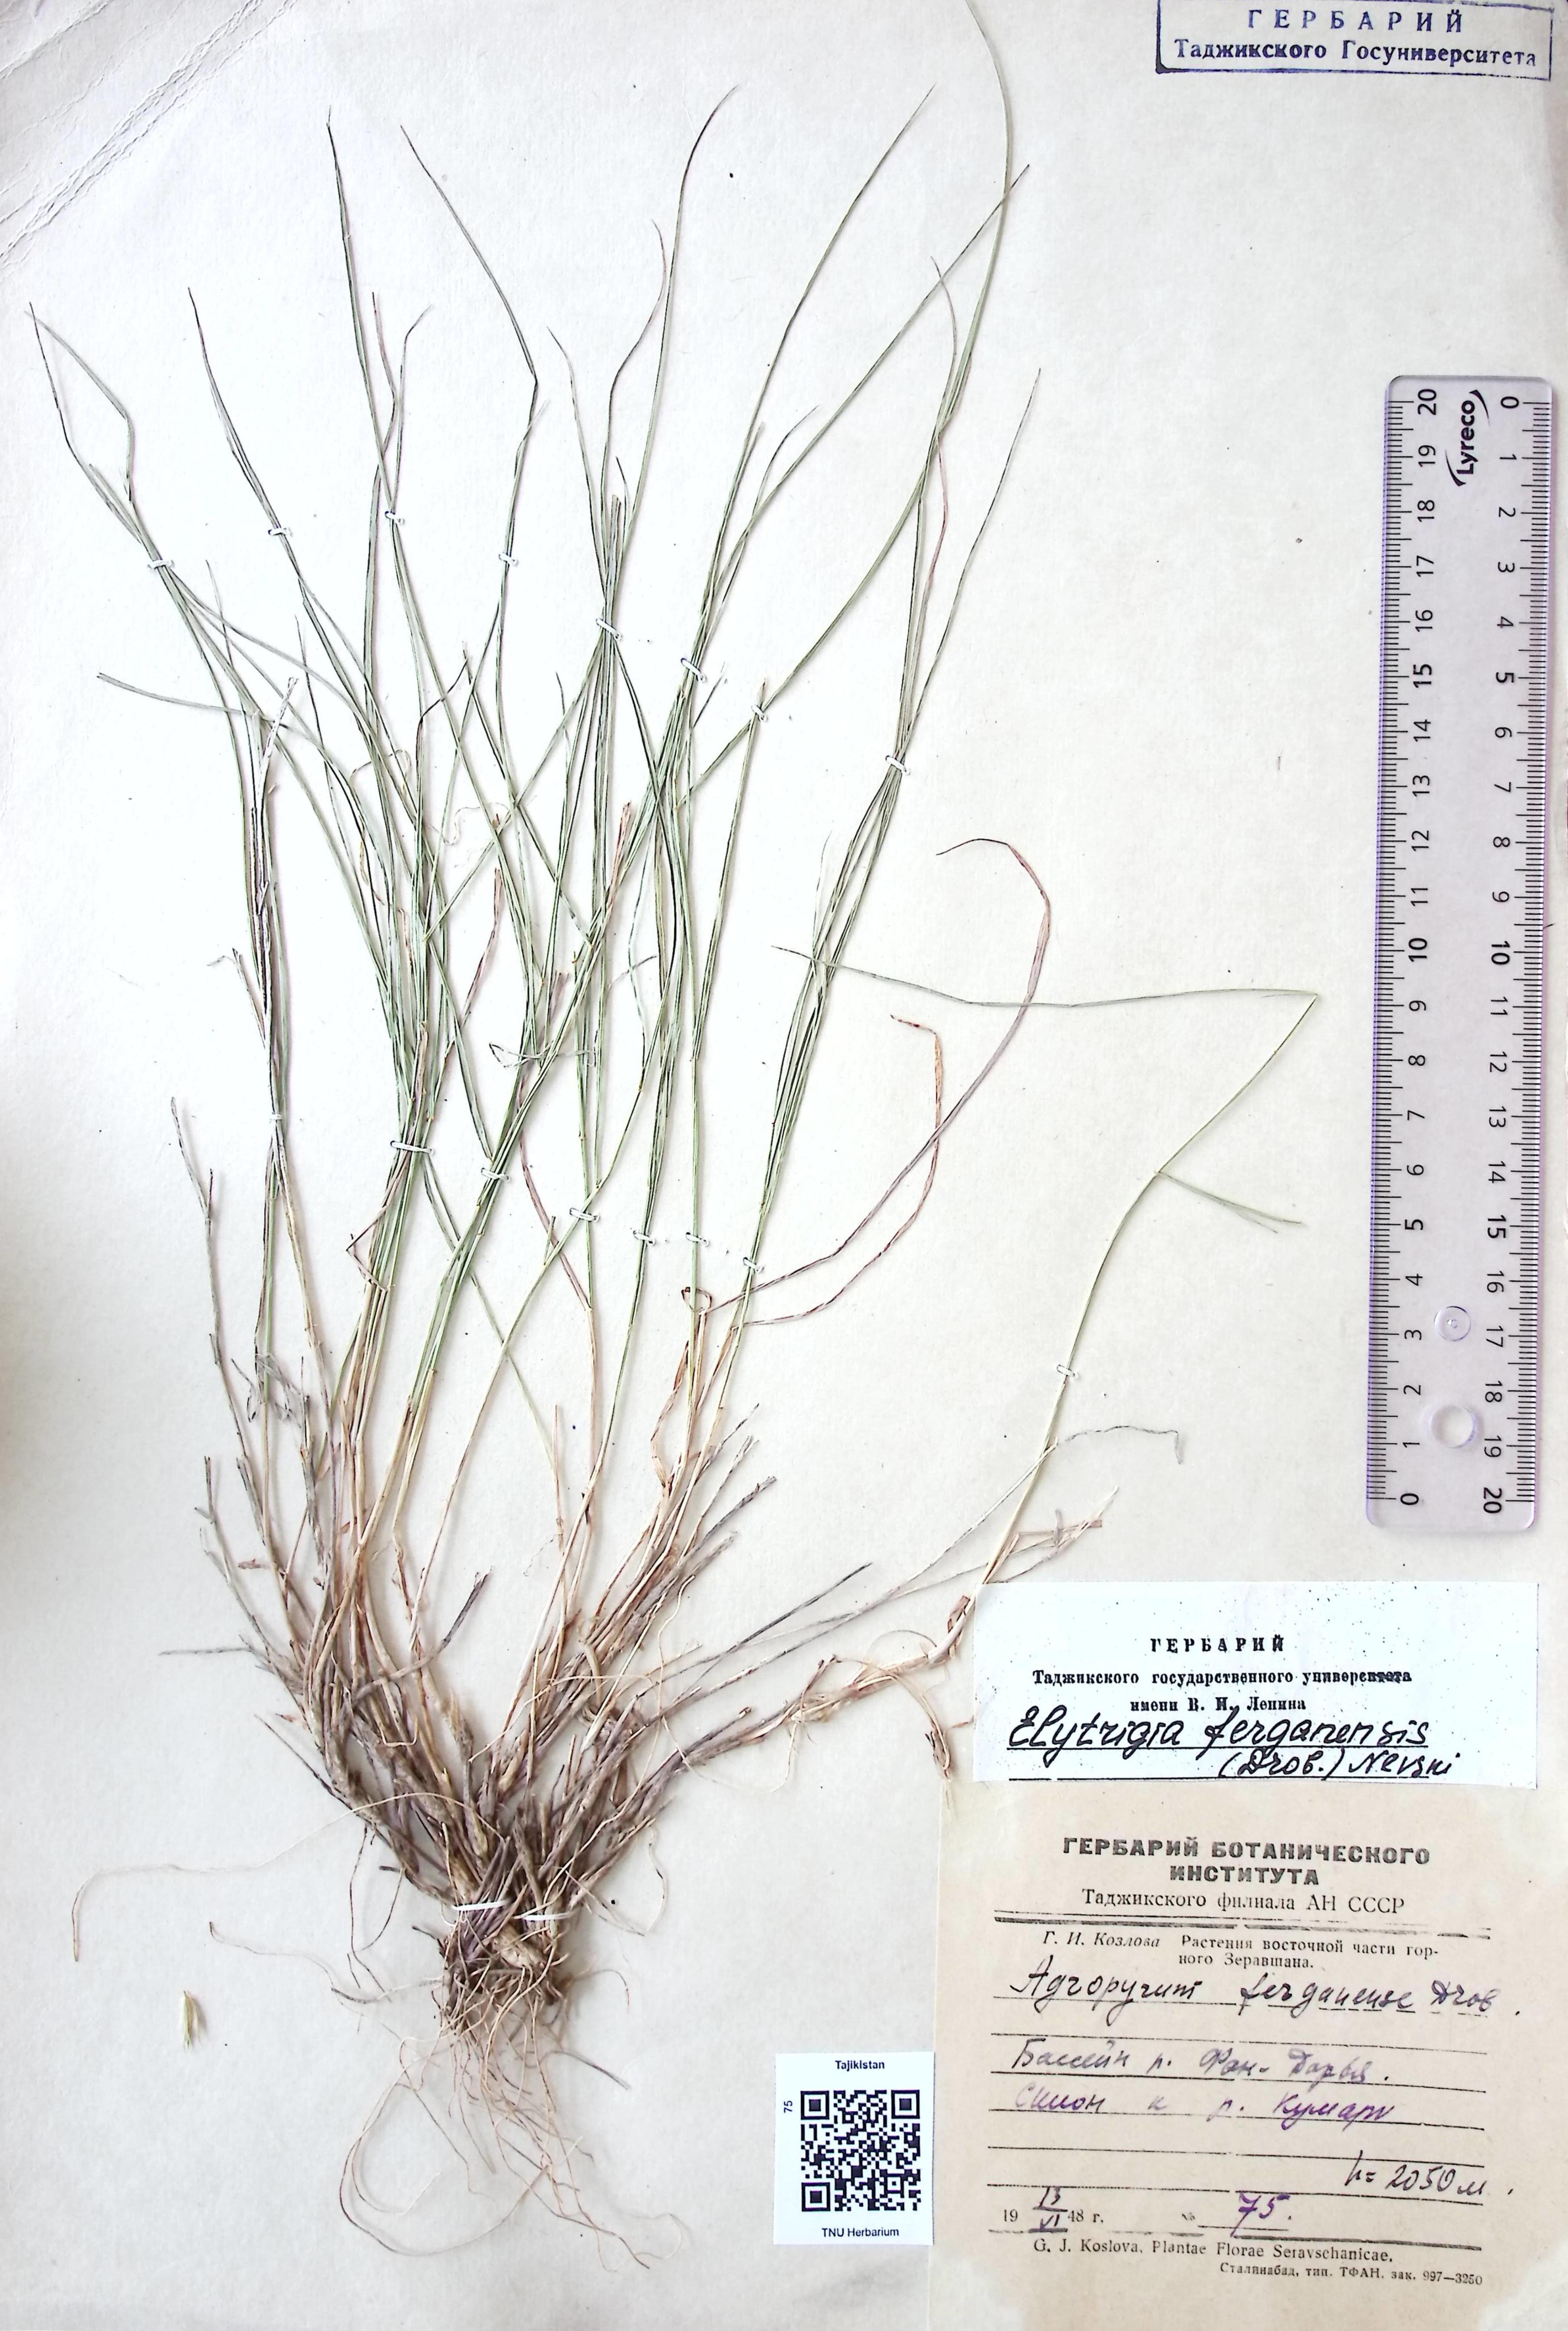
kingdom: Plantae
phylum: Tracheophyta
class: Liliopsida
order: Poales
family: Poaceae
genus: Pseudoroegneria
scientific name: Pseudoroegneria geniculata
